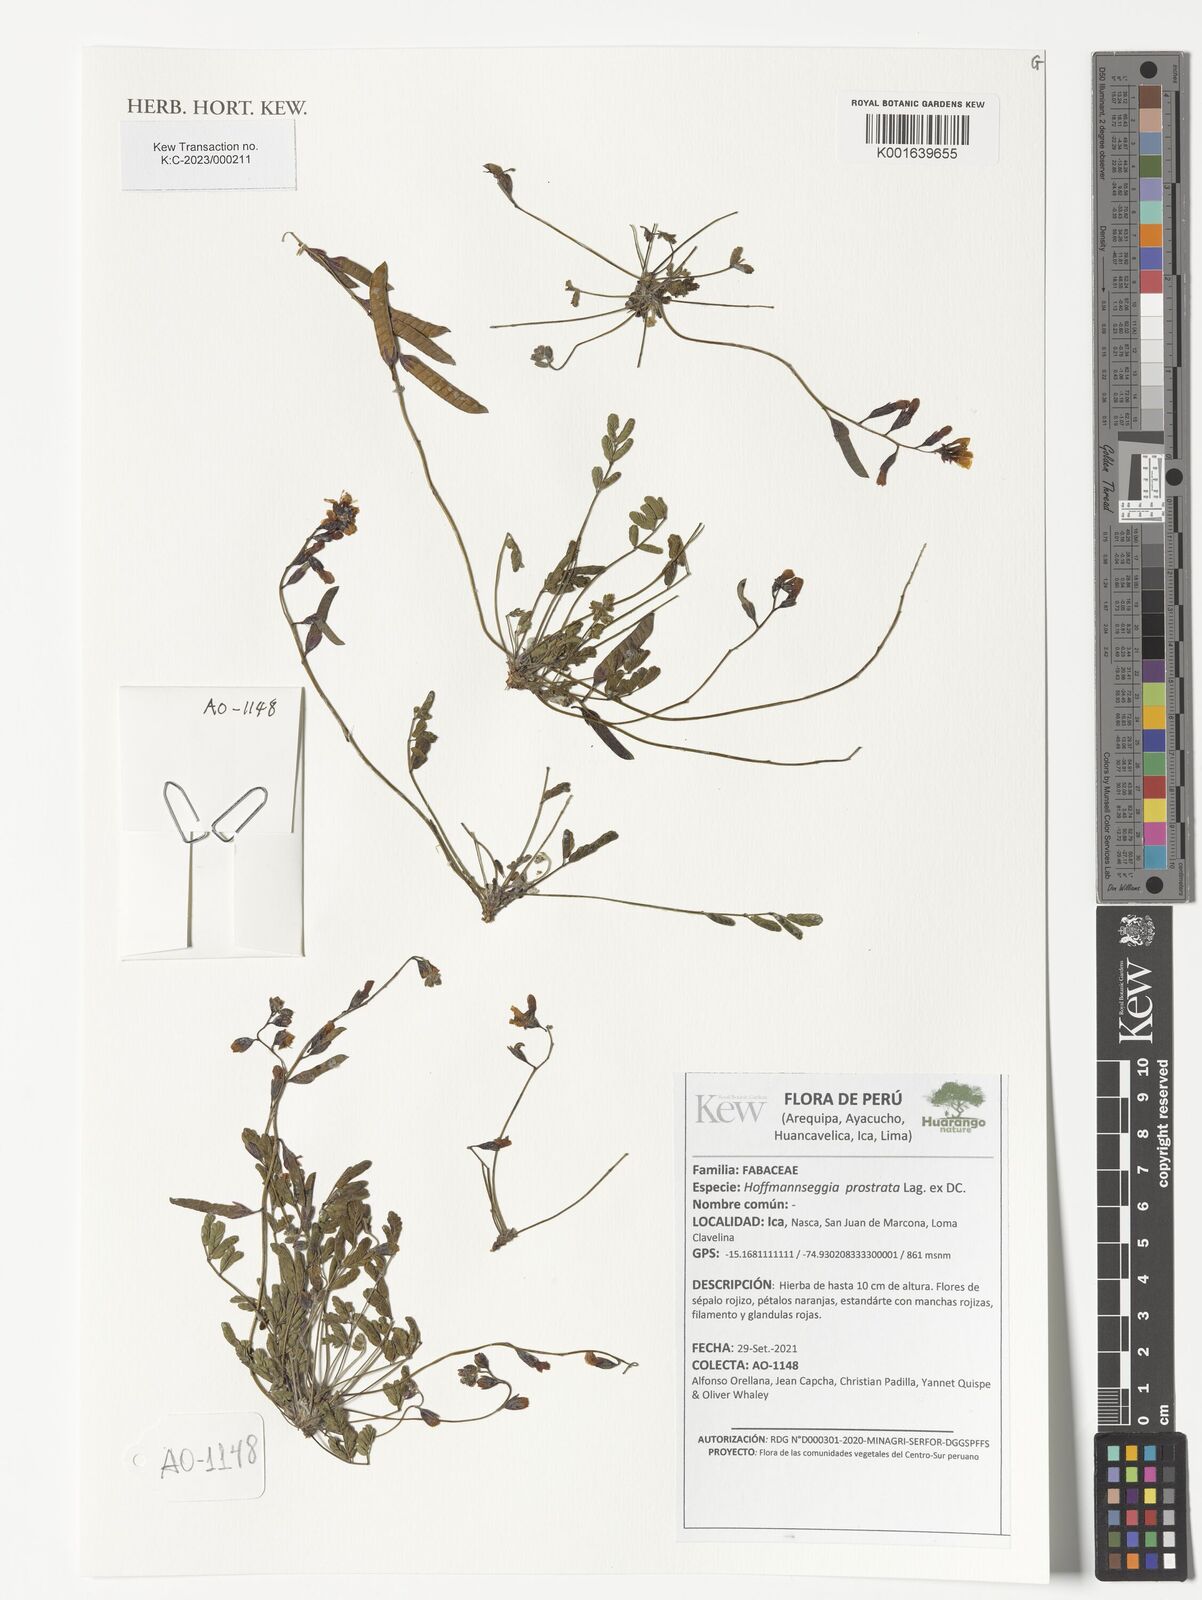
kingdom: Plantae
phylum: Tracheophyta
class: Magnoliopsida
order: Fabales
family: Fabaceae
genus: Hoffmannseggia
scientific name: Hoffmannseggia prostrata
